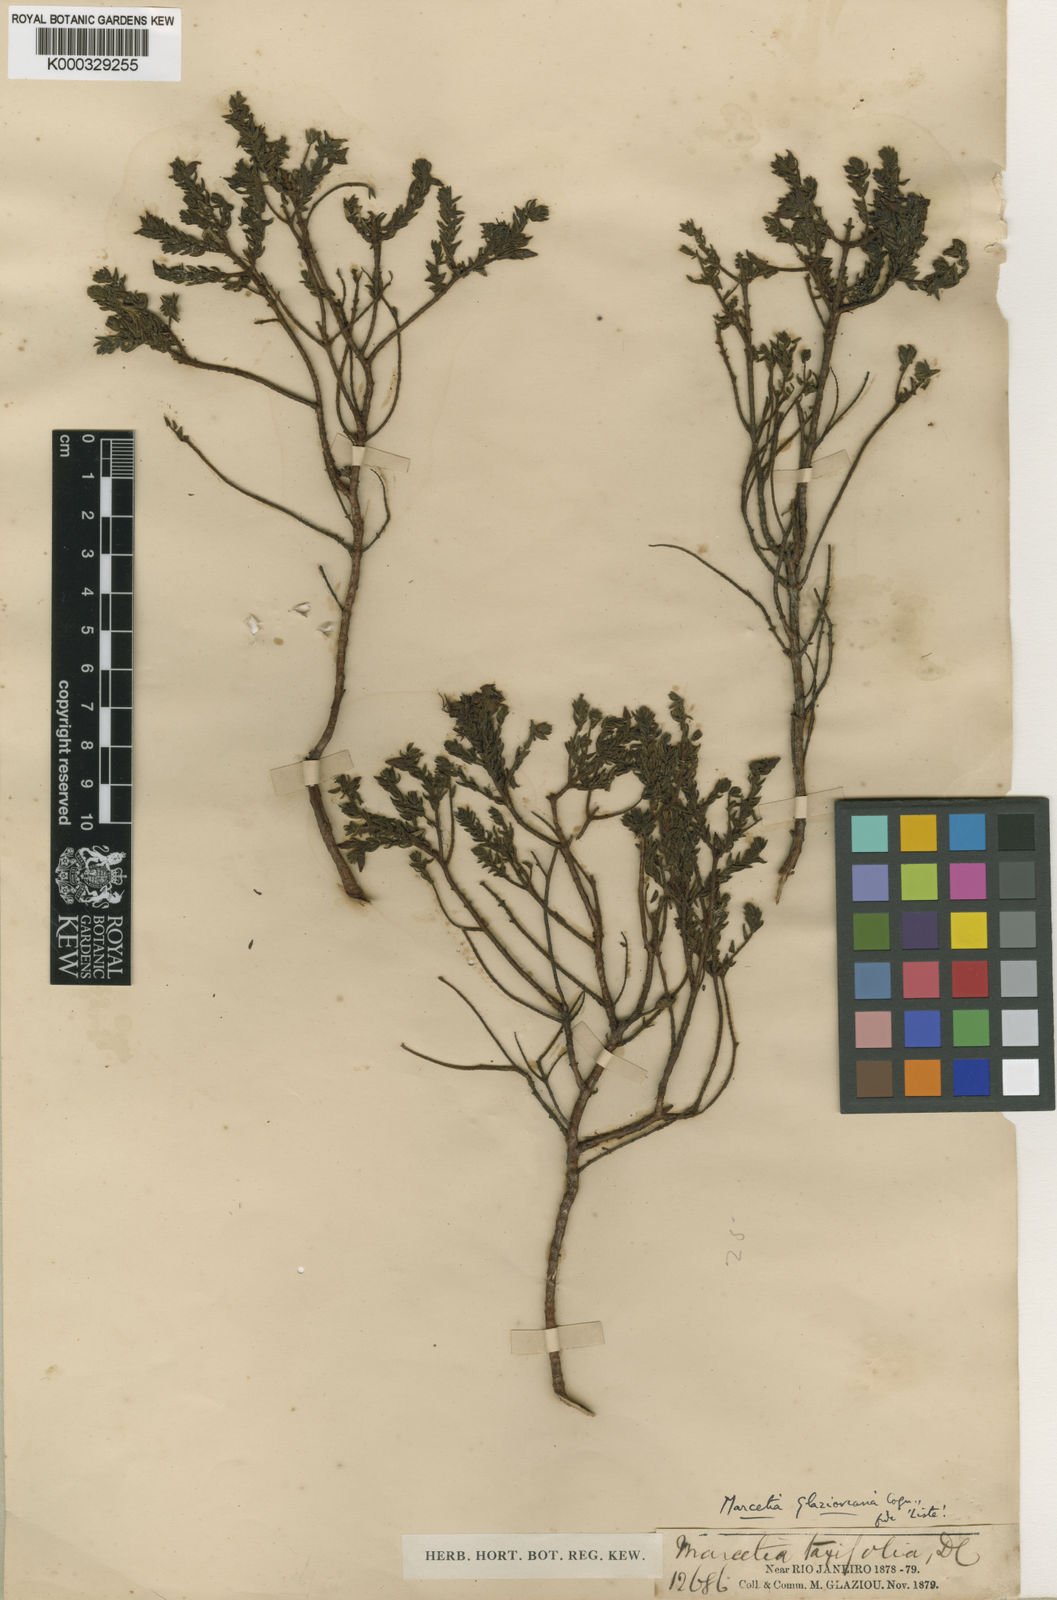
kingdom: Plantae
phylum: Tracheophyta
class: Magnoliopsida
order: Myrtales
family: Melastomataceae
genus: Marcetia
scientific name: Marcetia taxifolia
